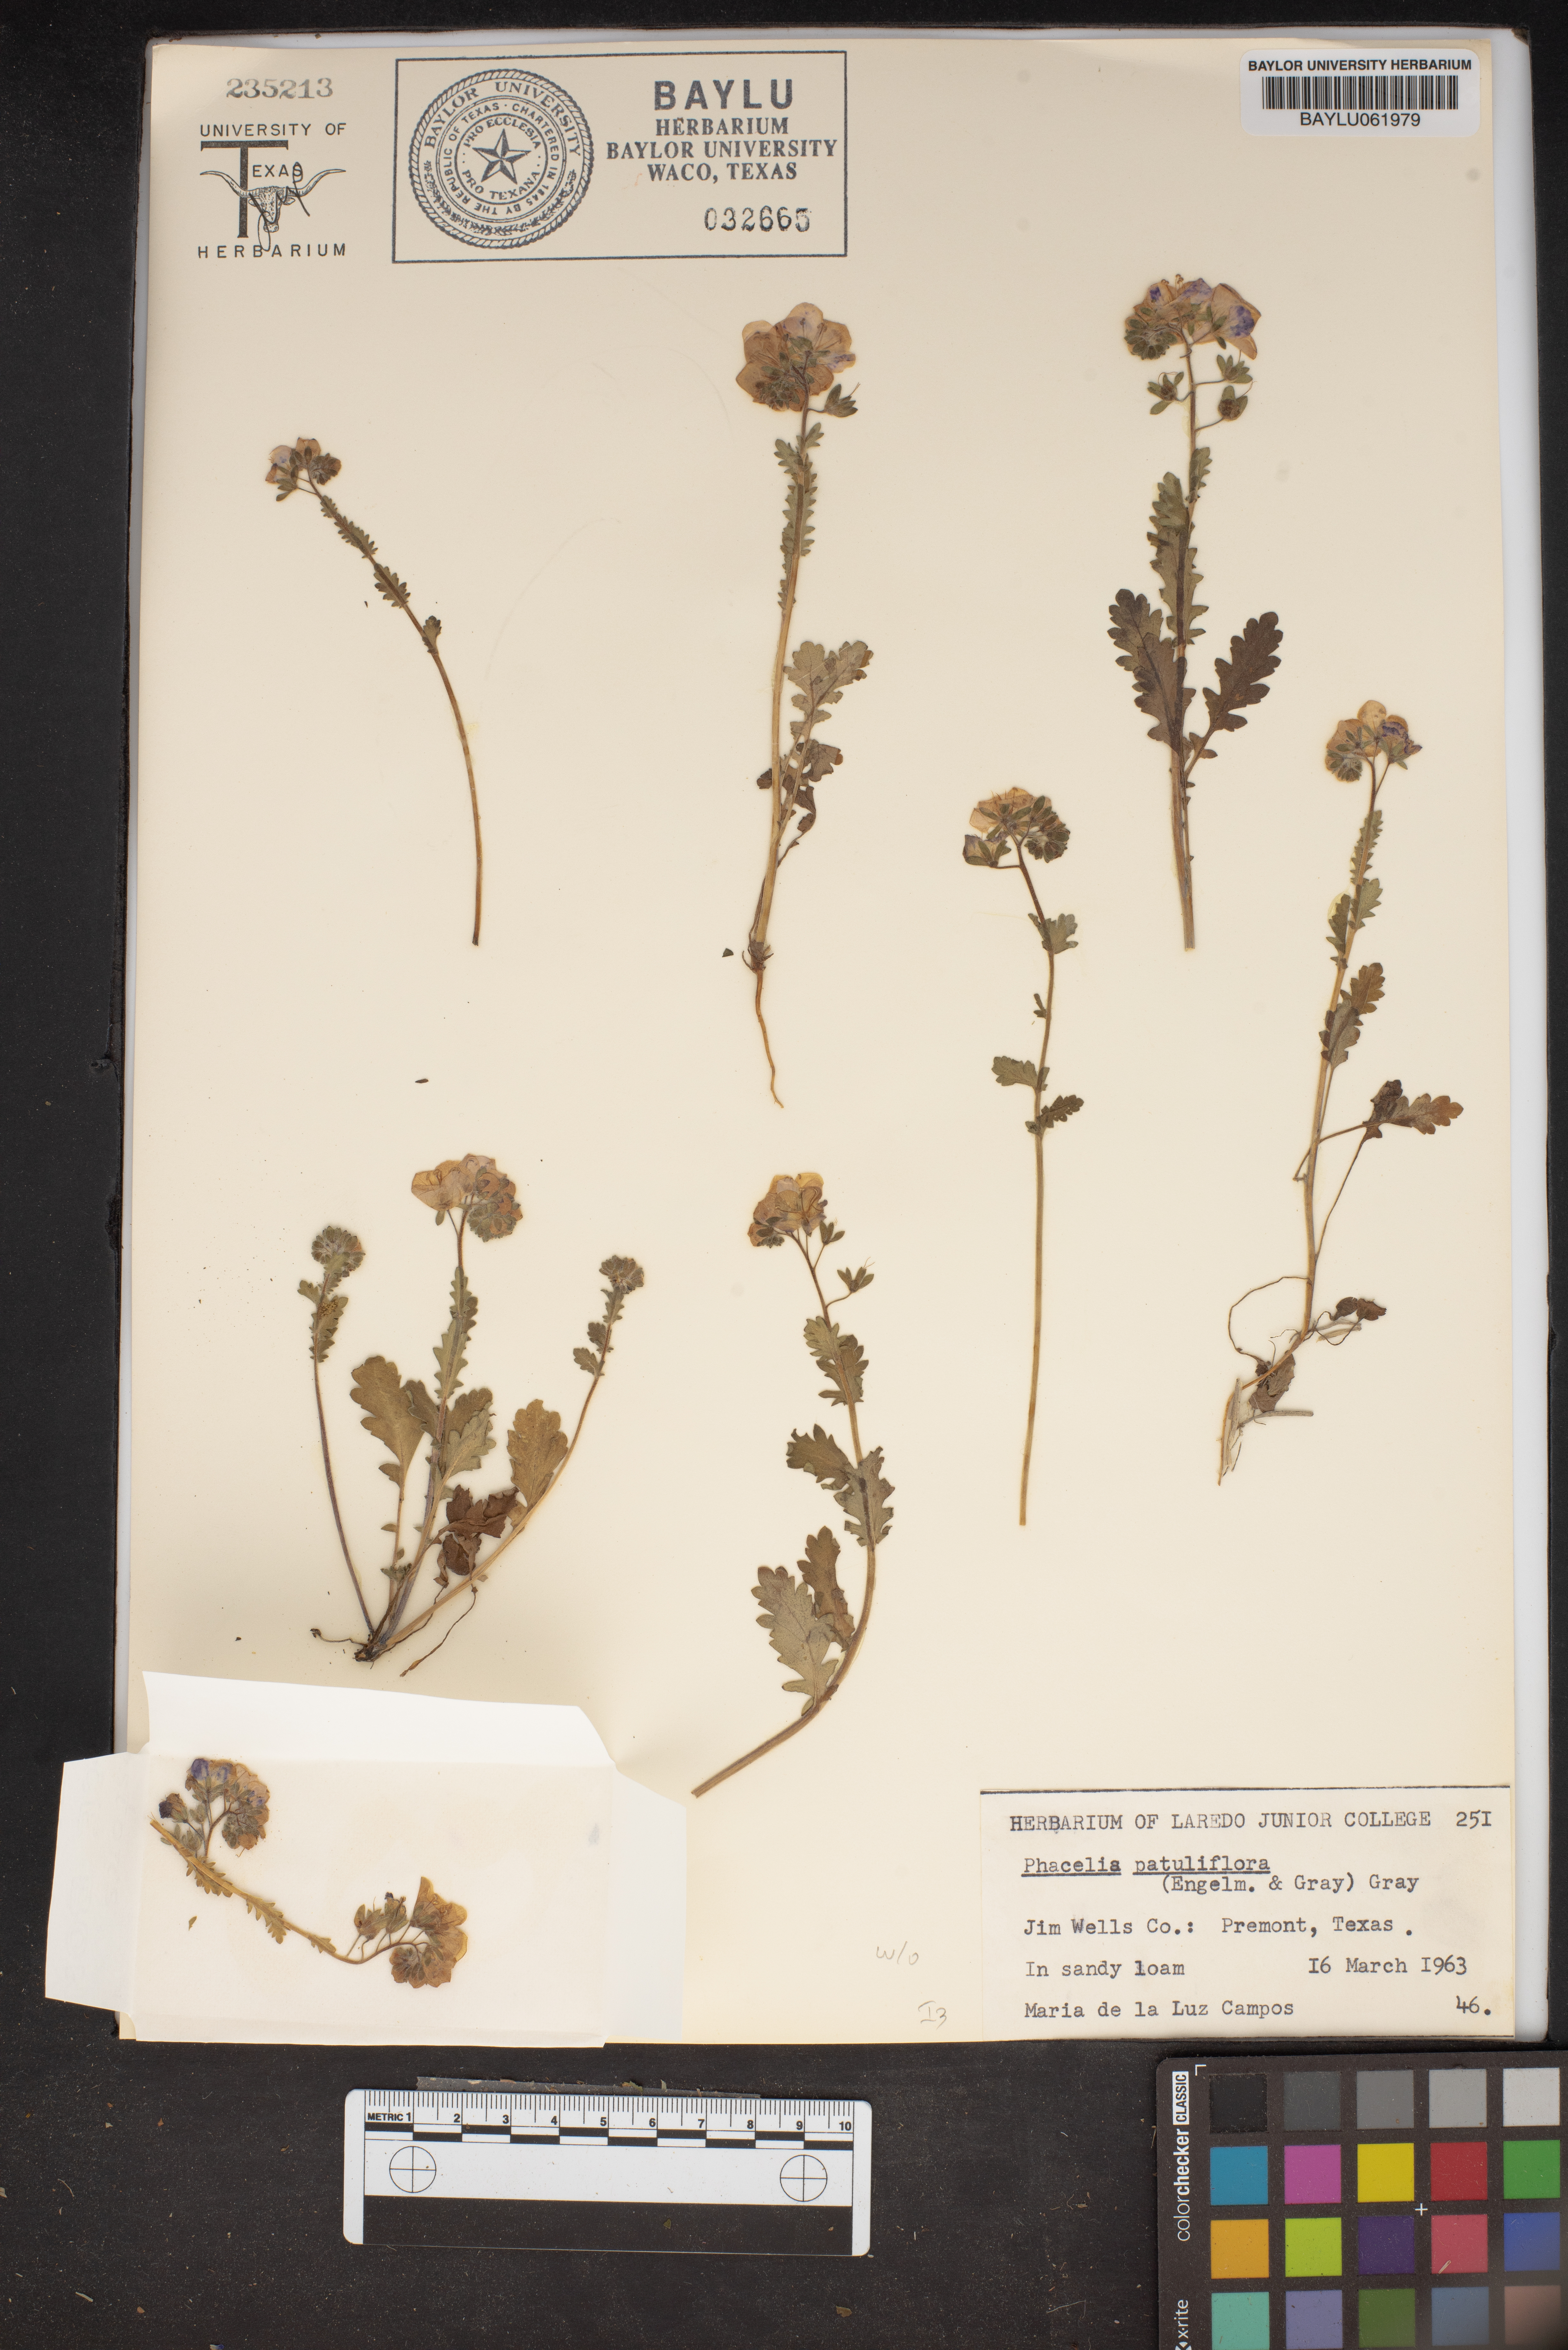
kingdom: Plantae
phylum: Tracheophyta
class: Magnoliopsida
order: Boraginales
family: Hydrophyllaceae
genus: Phacelia
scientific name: Phacelia patuliflora
